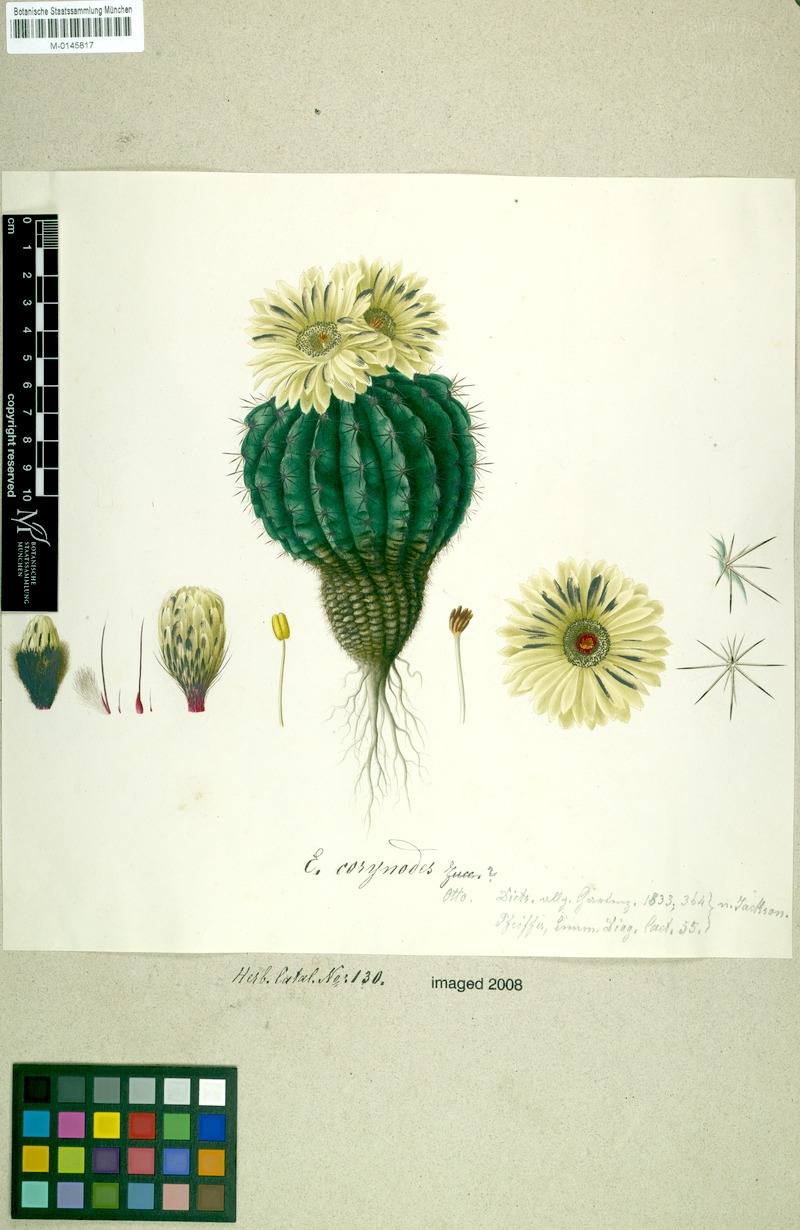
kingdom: Plantae
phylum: Tracheophyta
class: Magnoliopsida
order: Caryophyllales
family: Cactaceae
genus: Parodia
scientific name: Parodia erinacea
